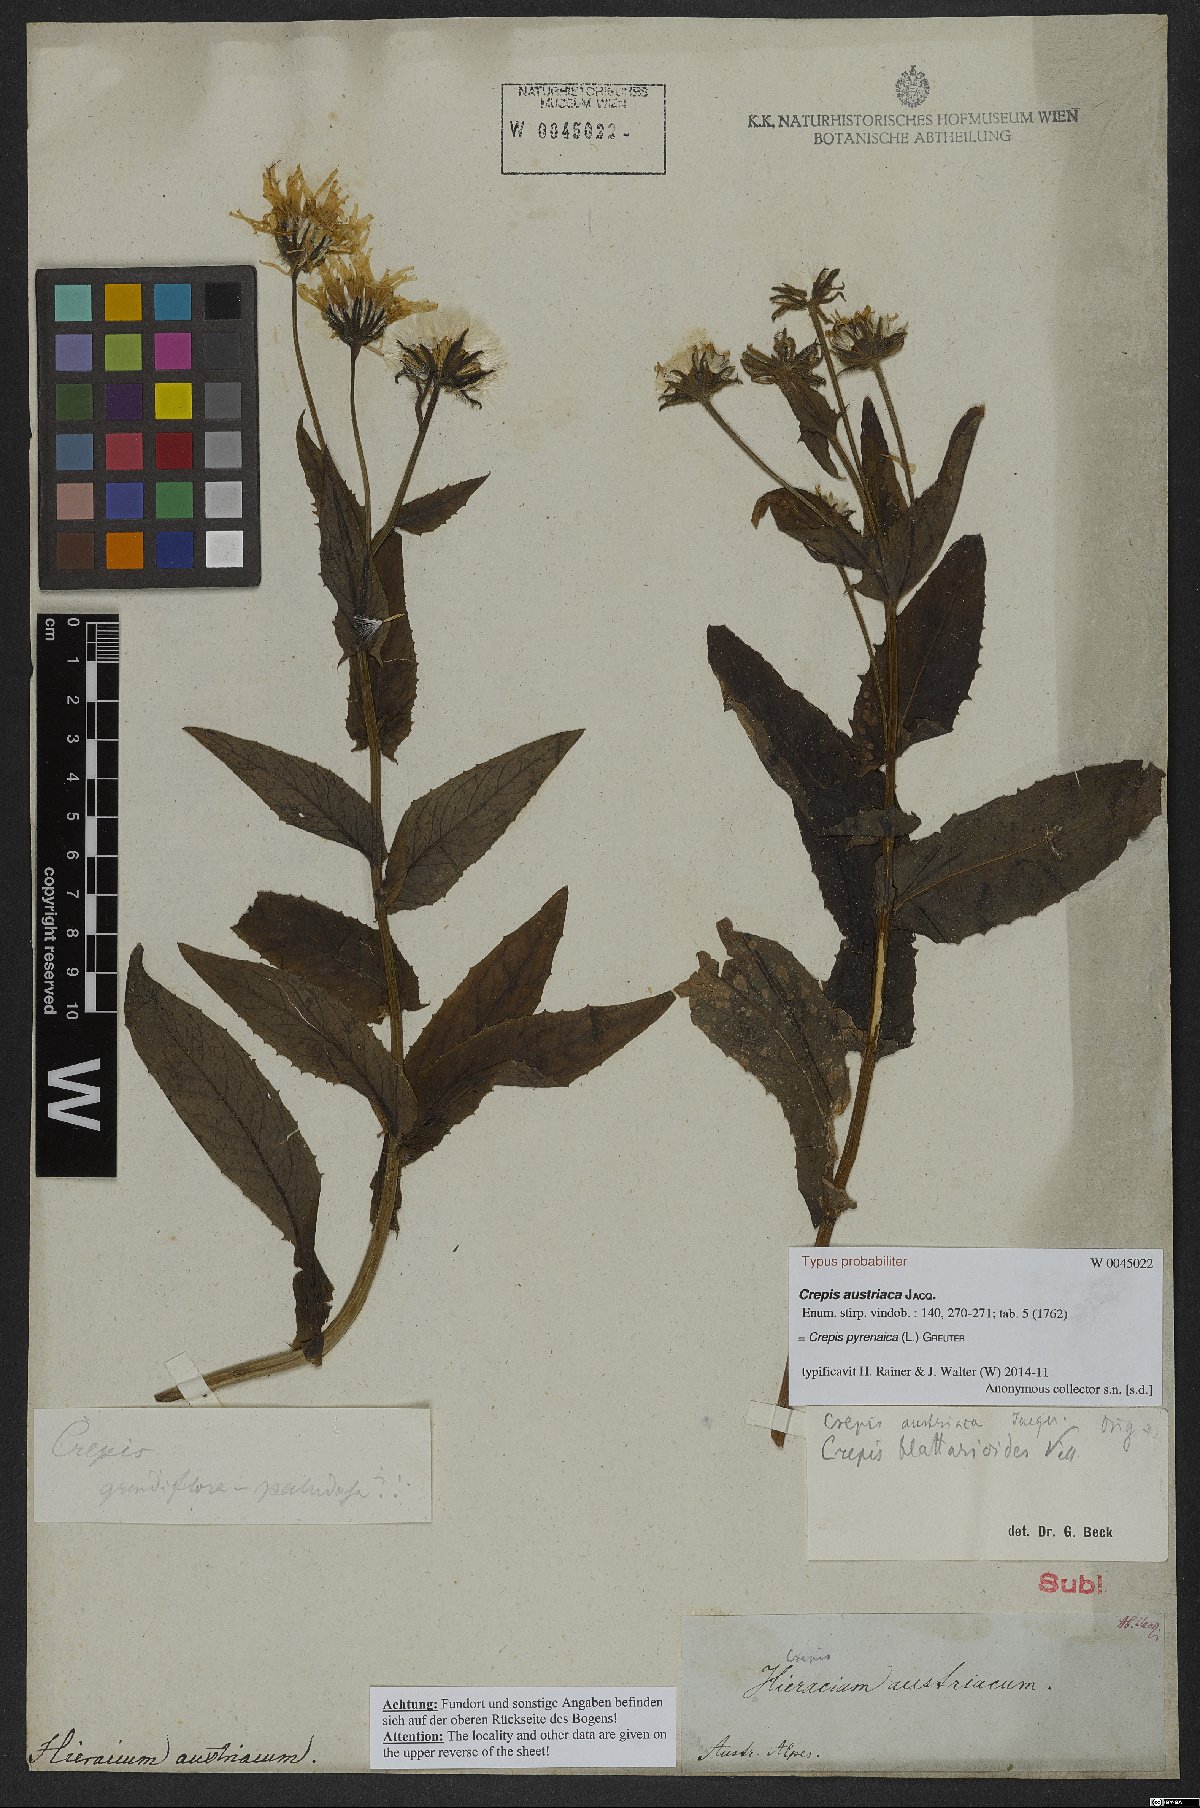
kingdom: Plantae
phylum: Tracheophyta
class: Magnoliopsida
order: Asterales
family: Asteraceae
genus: Crepis
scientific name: Crepis pyrenaica
